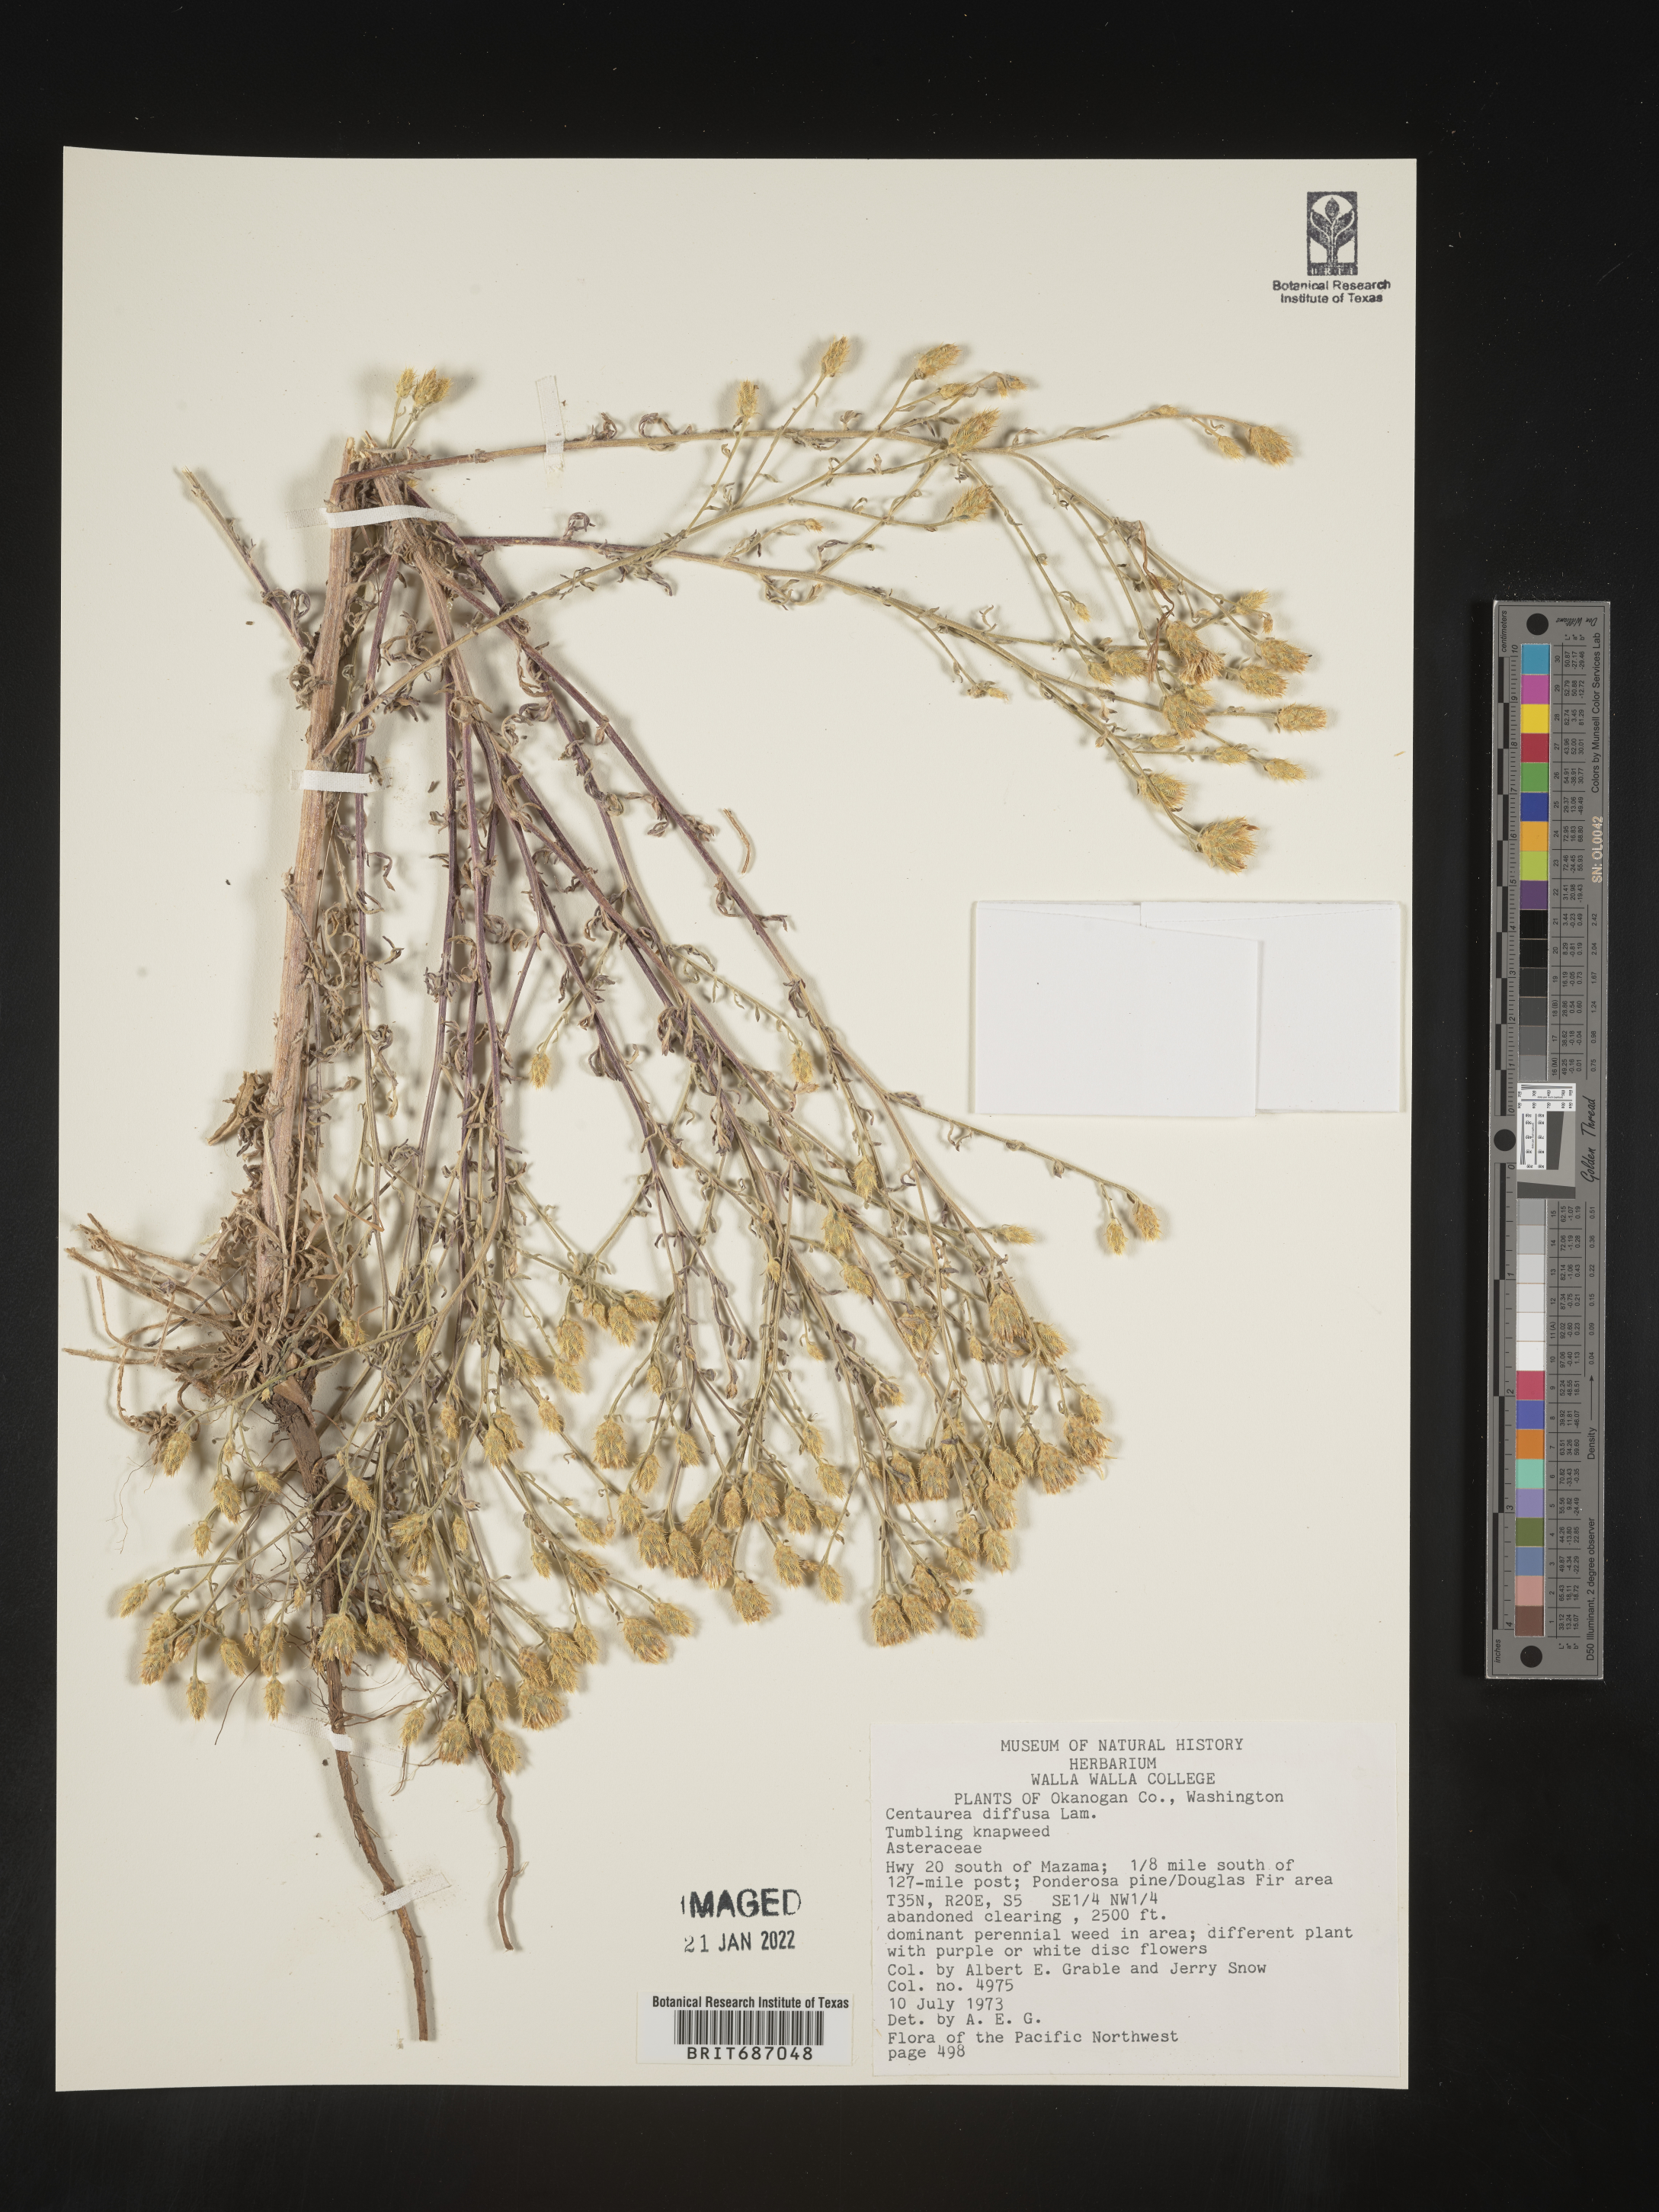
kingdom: Plantae
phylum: Tracheophyta
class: Magnoliopsida
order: Asterales
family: Asteraceae
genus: Centaurea
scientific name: Centaurea diffusa
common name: Diffuse knapweed
